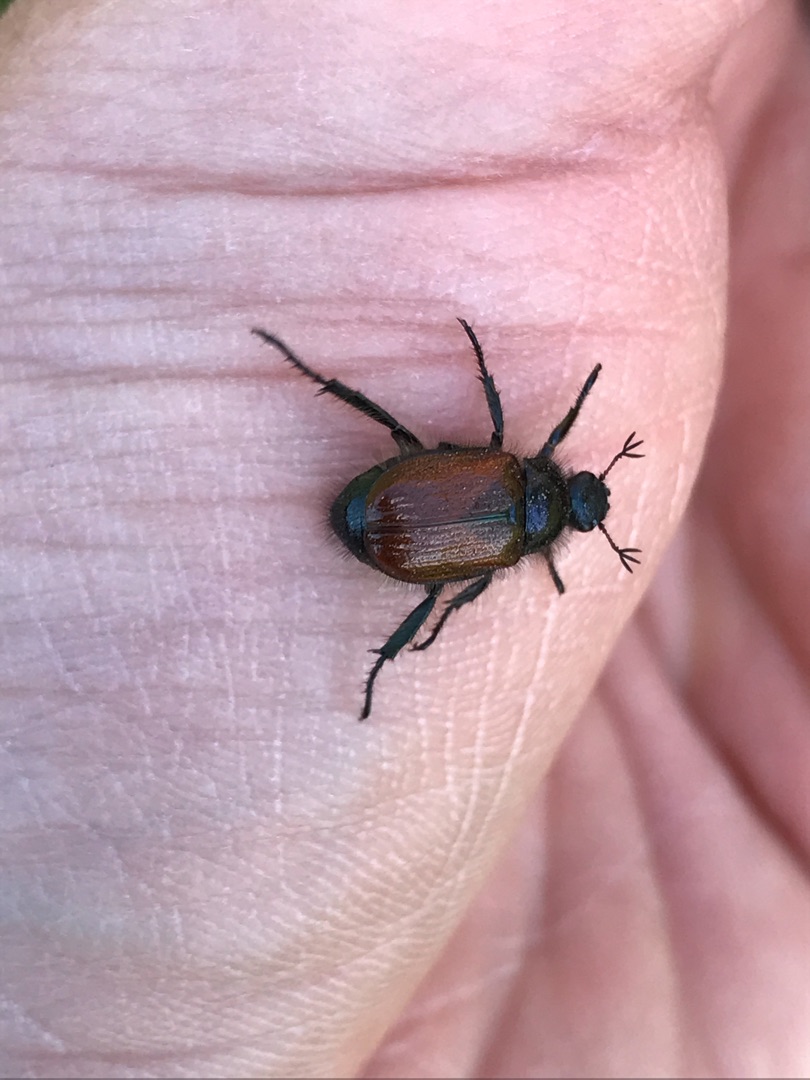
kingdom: Animalia
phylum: Arthropoda
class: Insecta
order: Coleoptera
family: Scarabaeidae
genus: Phyllopertha
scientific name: Phyllopertha horticola
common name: Gåsebille
